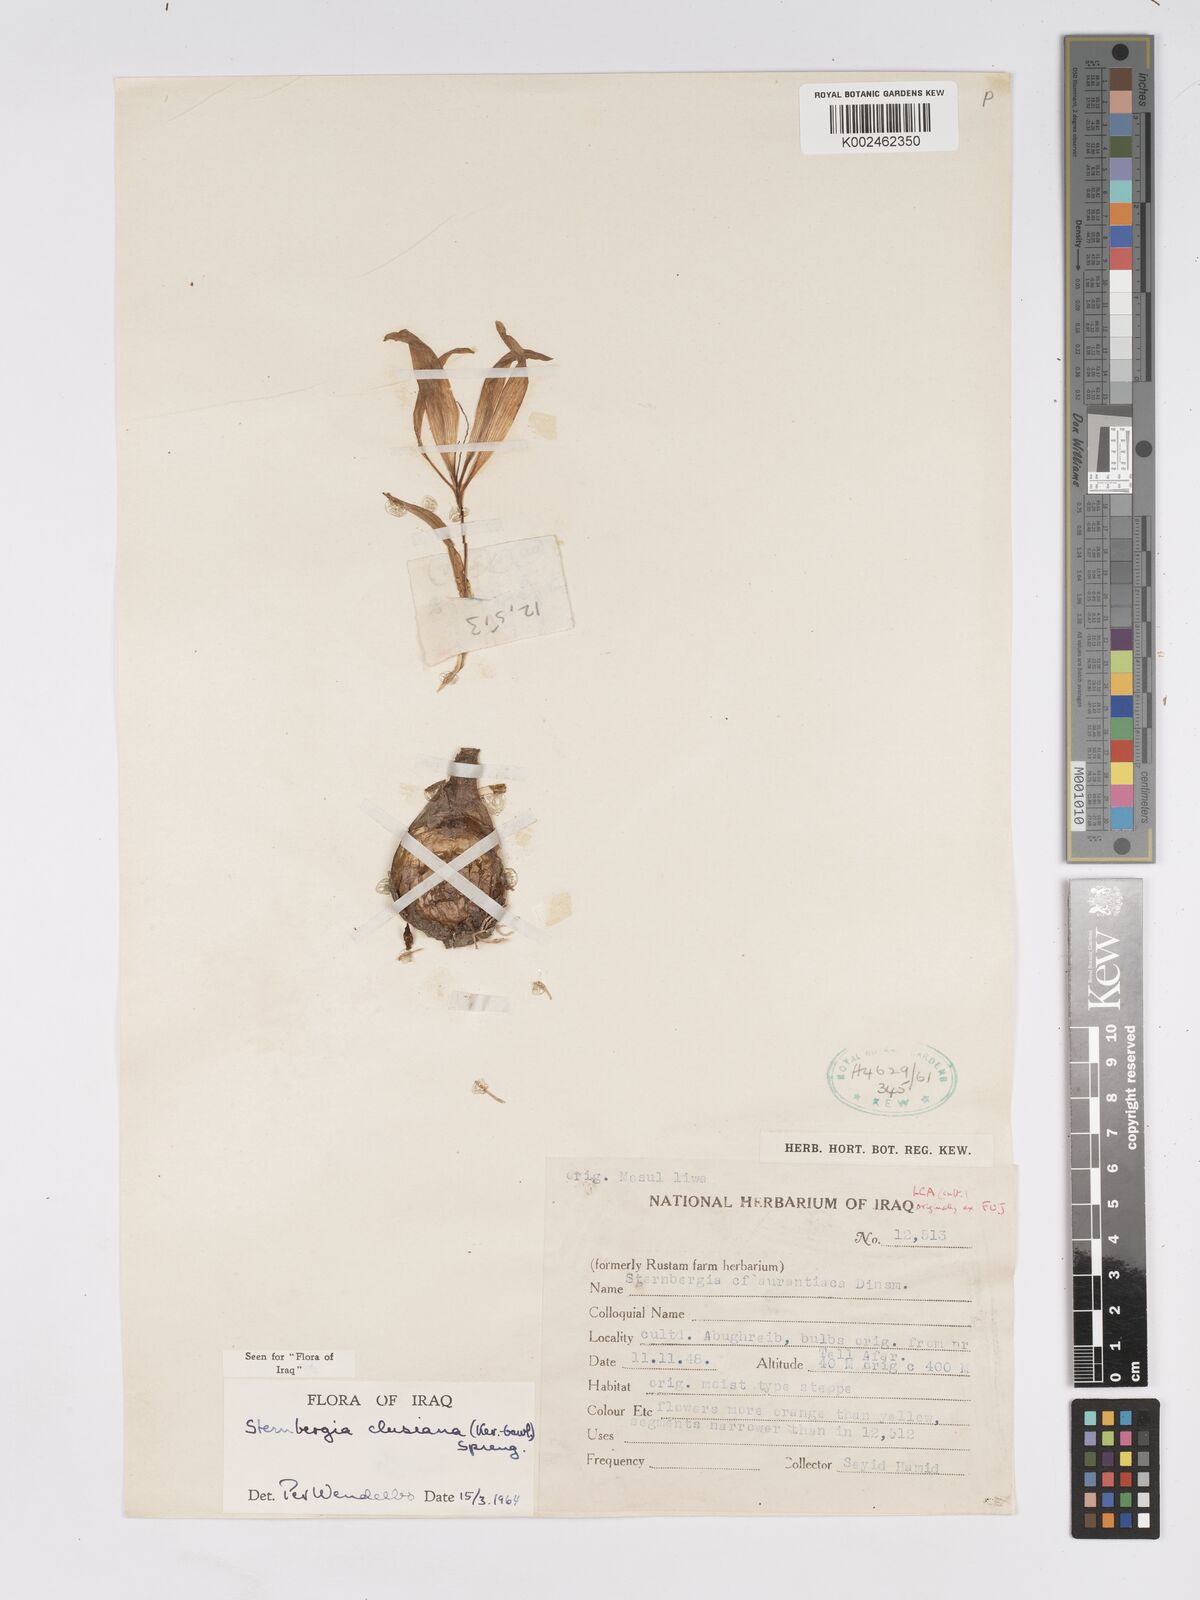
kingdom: Plantae
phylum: Tracheophyta
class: Liliopsida
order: Asparagales
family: Amaryllidaceae
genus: Sternbergia
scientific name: Sternbergia clusiana
